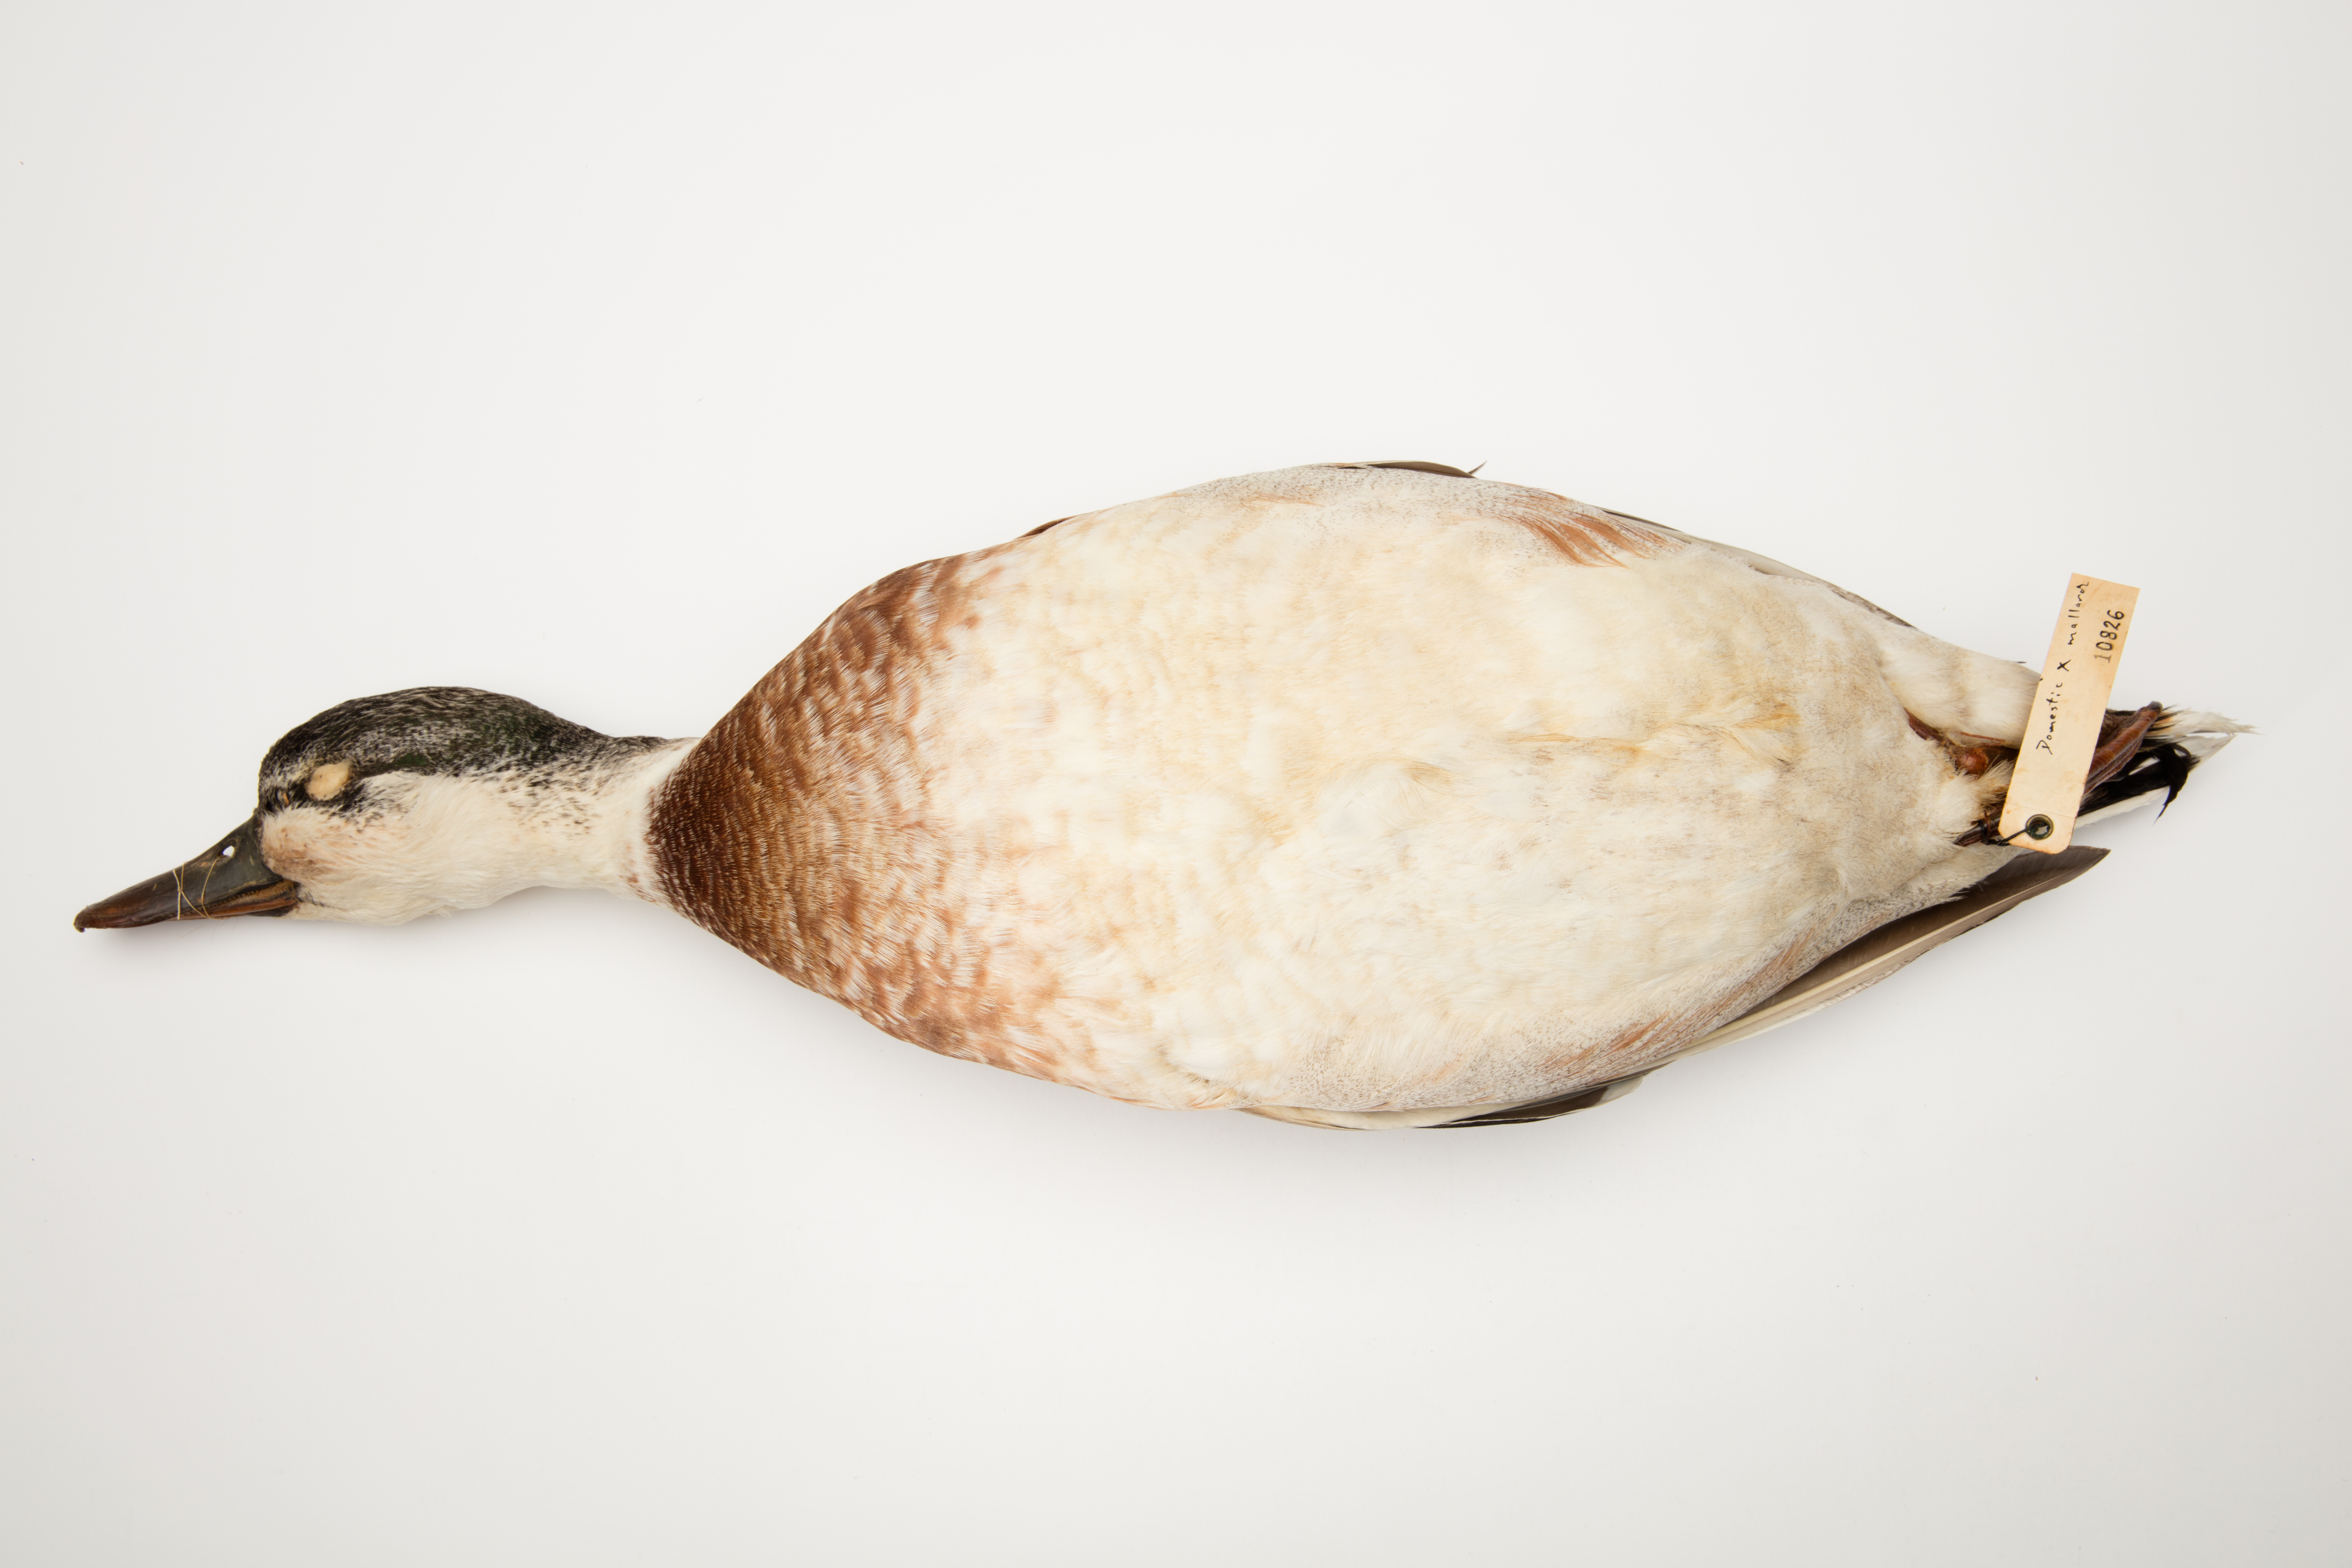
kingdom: Animalia
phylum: Chordata
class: Aves
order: Anseriformes
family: Anatidae
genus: Anas
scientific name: Anas platyrhynchos
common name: Mallard
